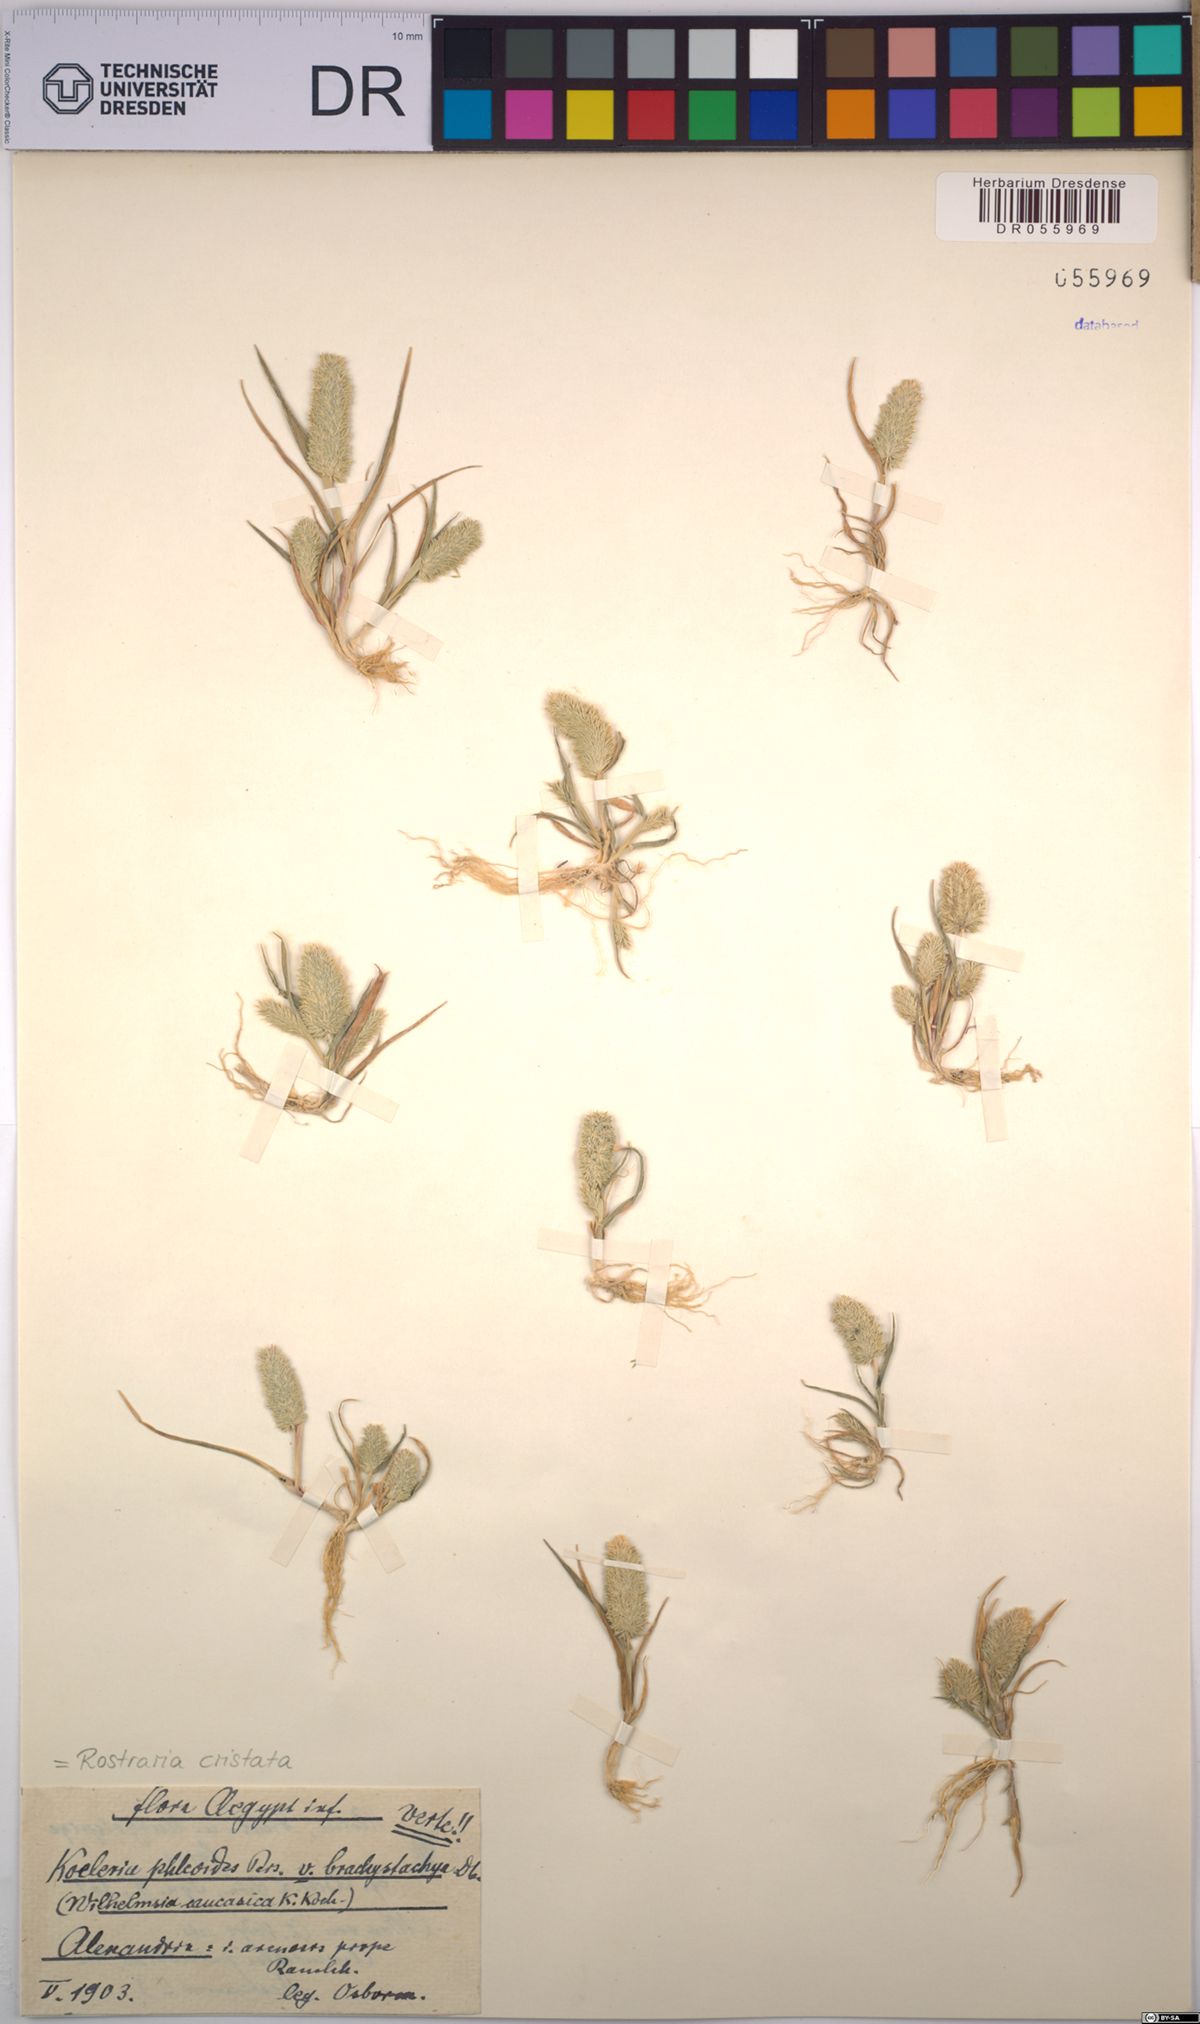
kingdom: Plantae
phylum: Tracheophyta
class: Liliopsida
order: Poales
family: Poaceae
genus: Rostraria
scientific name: Rostraria cristata
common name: Mediterranean hair-grass
